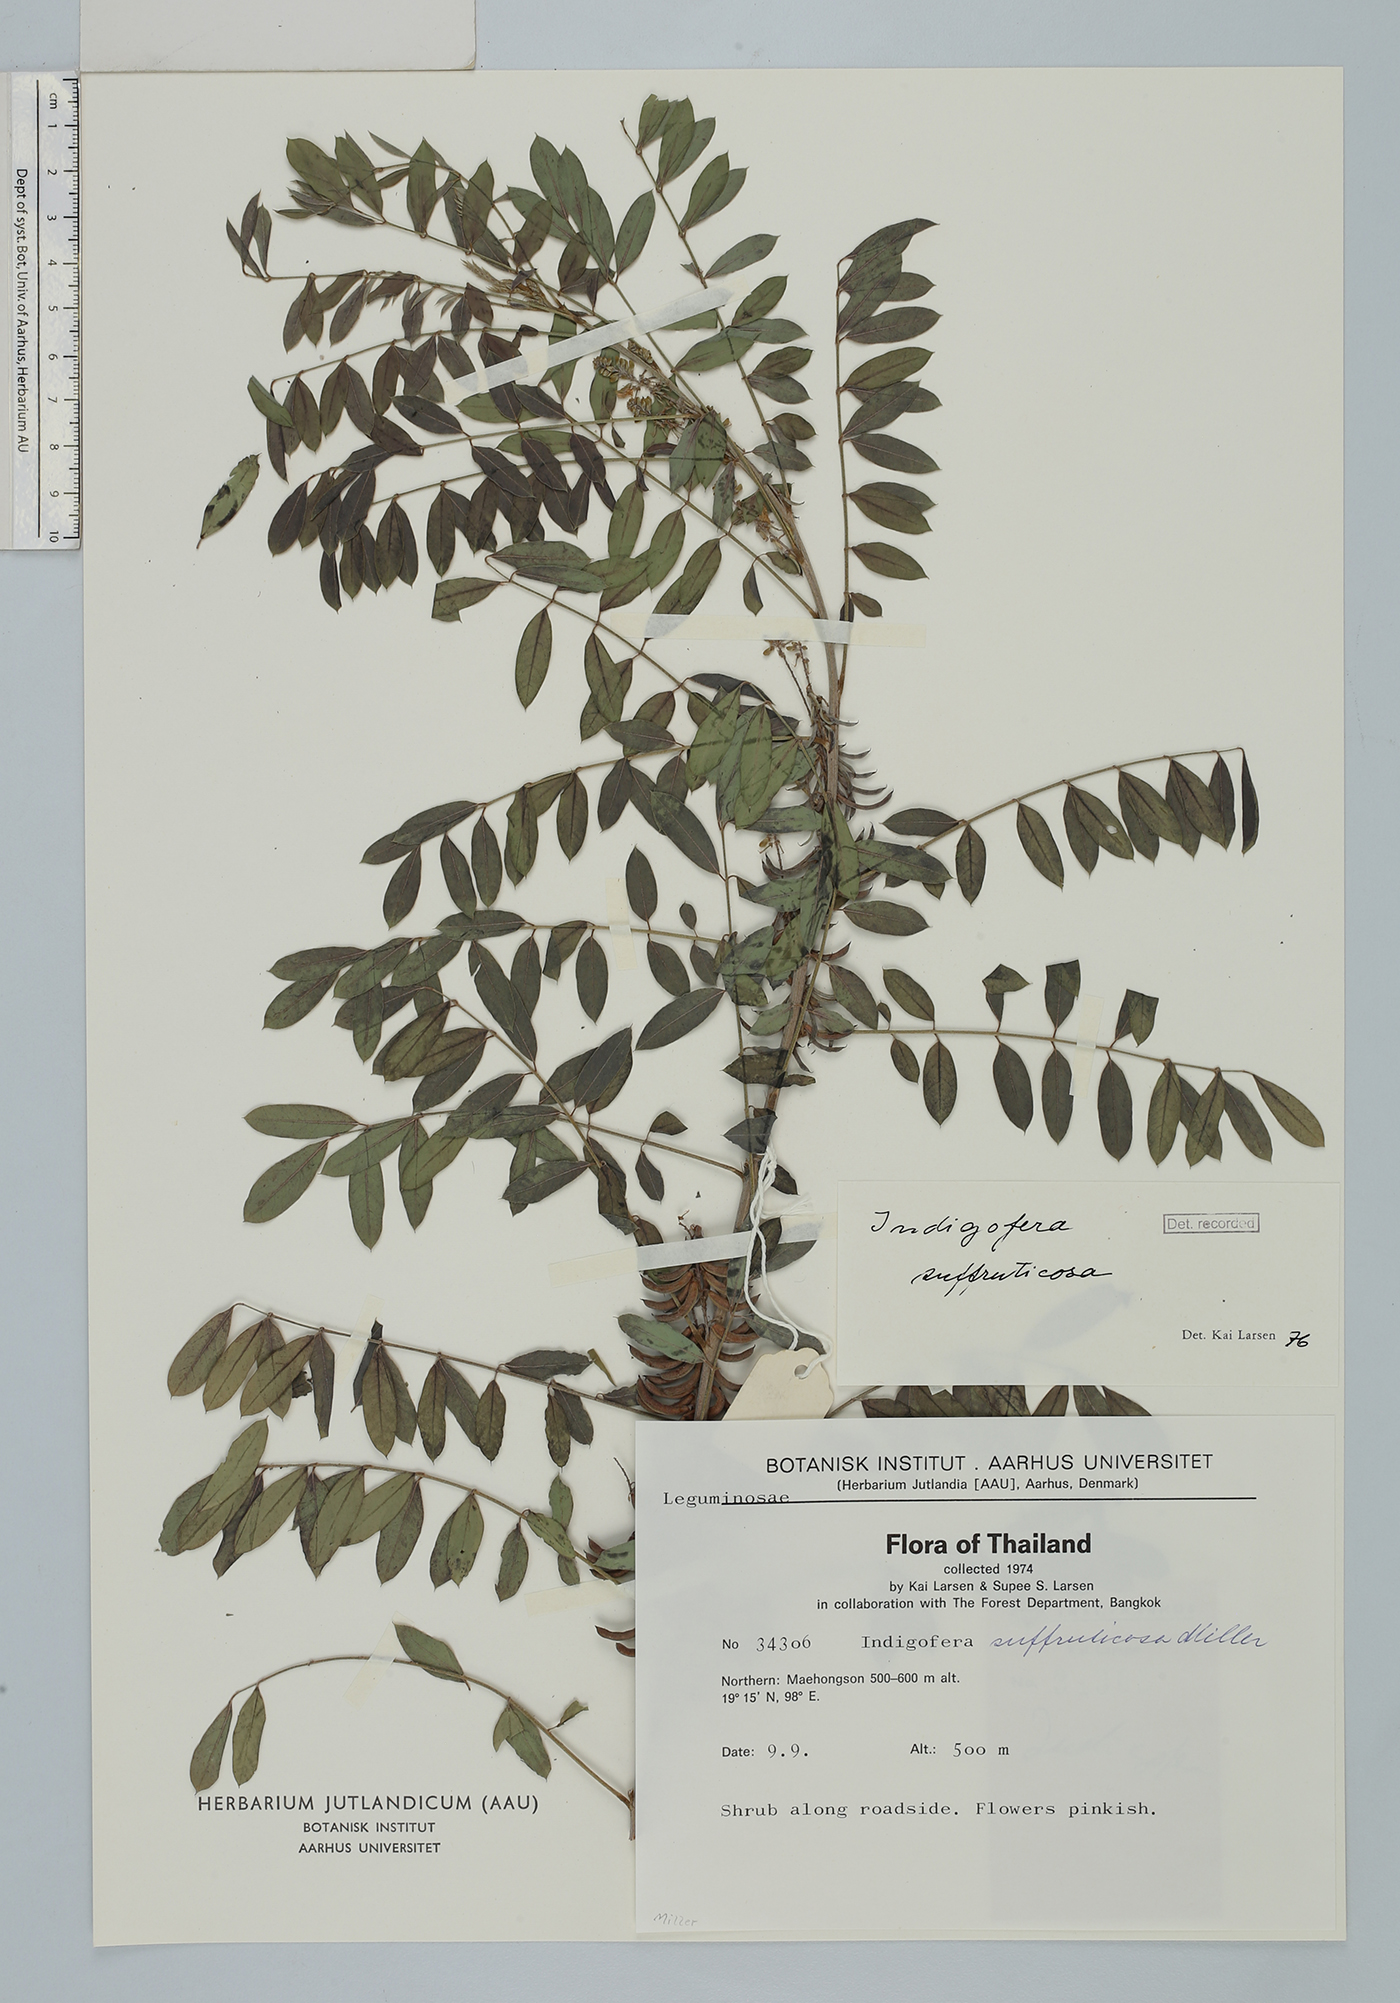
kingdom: Plantae
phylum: Tracheophyta
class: Magnoliopsida
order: Fabales
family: Fabaceae
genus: Indigofera
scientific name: Indigofera suffruticosa
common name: Anil de pasto
